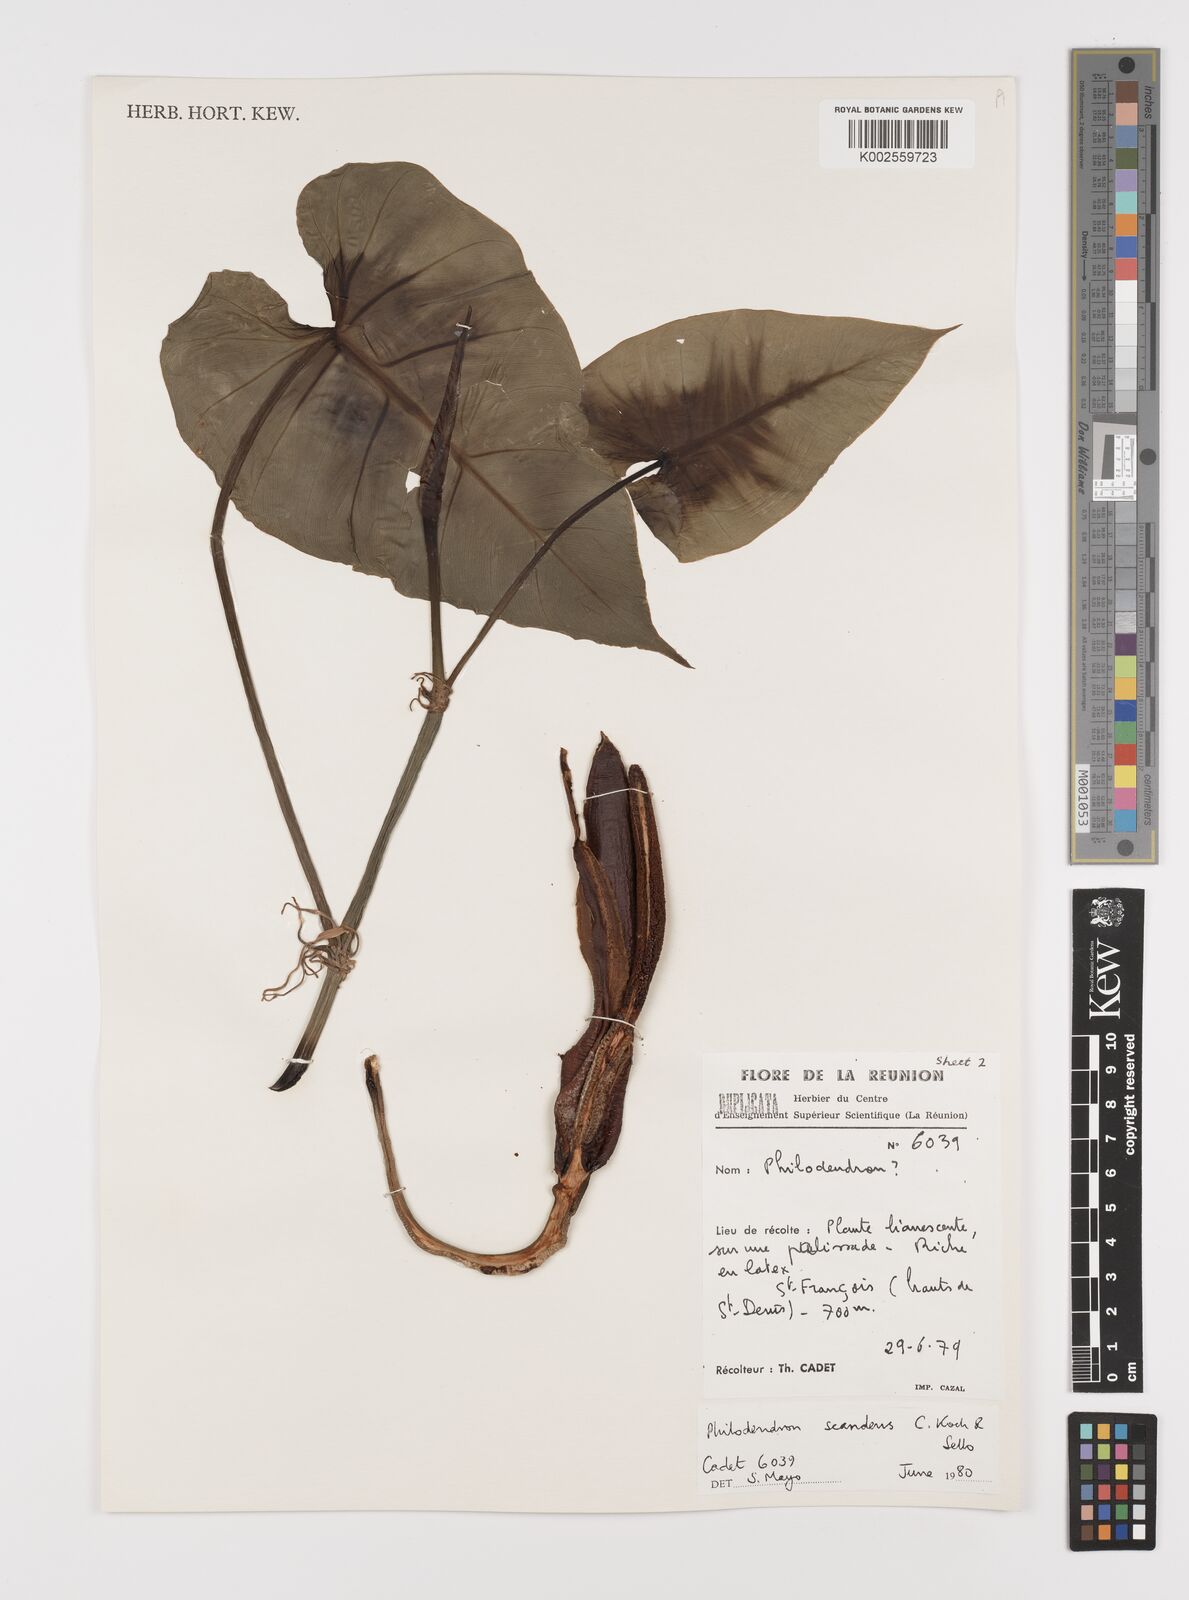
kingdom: Plantae
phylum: Tracheophyta
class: Liliopsida
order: Alismatales
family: Araceae
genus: Philodendron
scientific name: Philodendron hederaceum
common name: Vilevine
